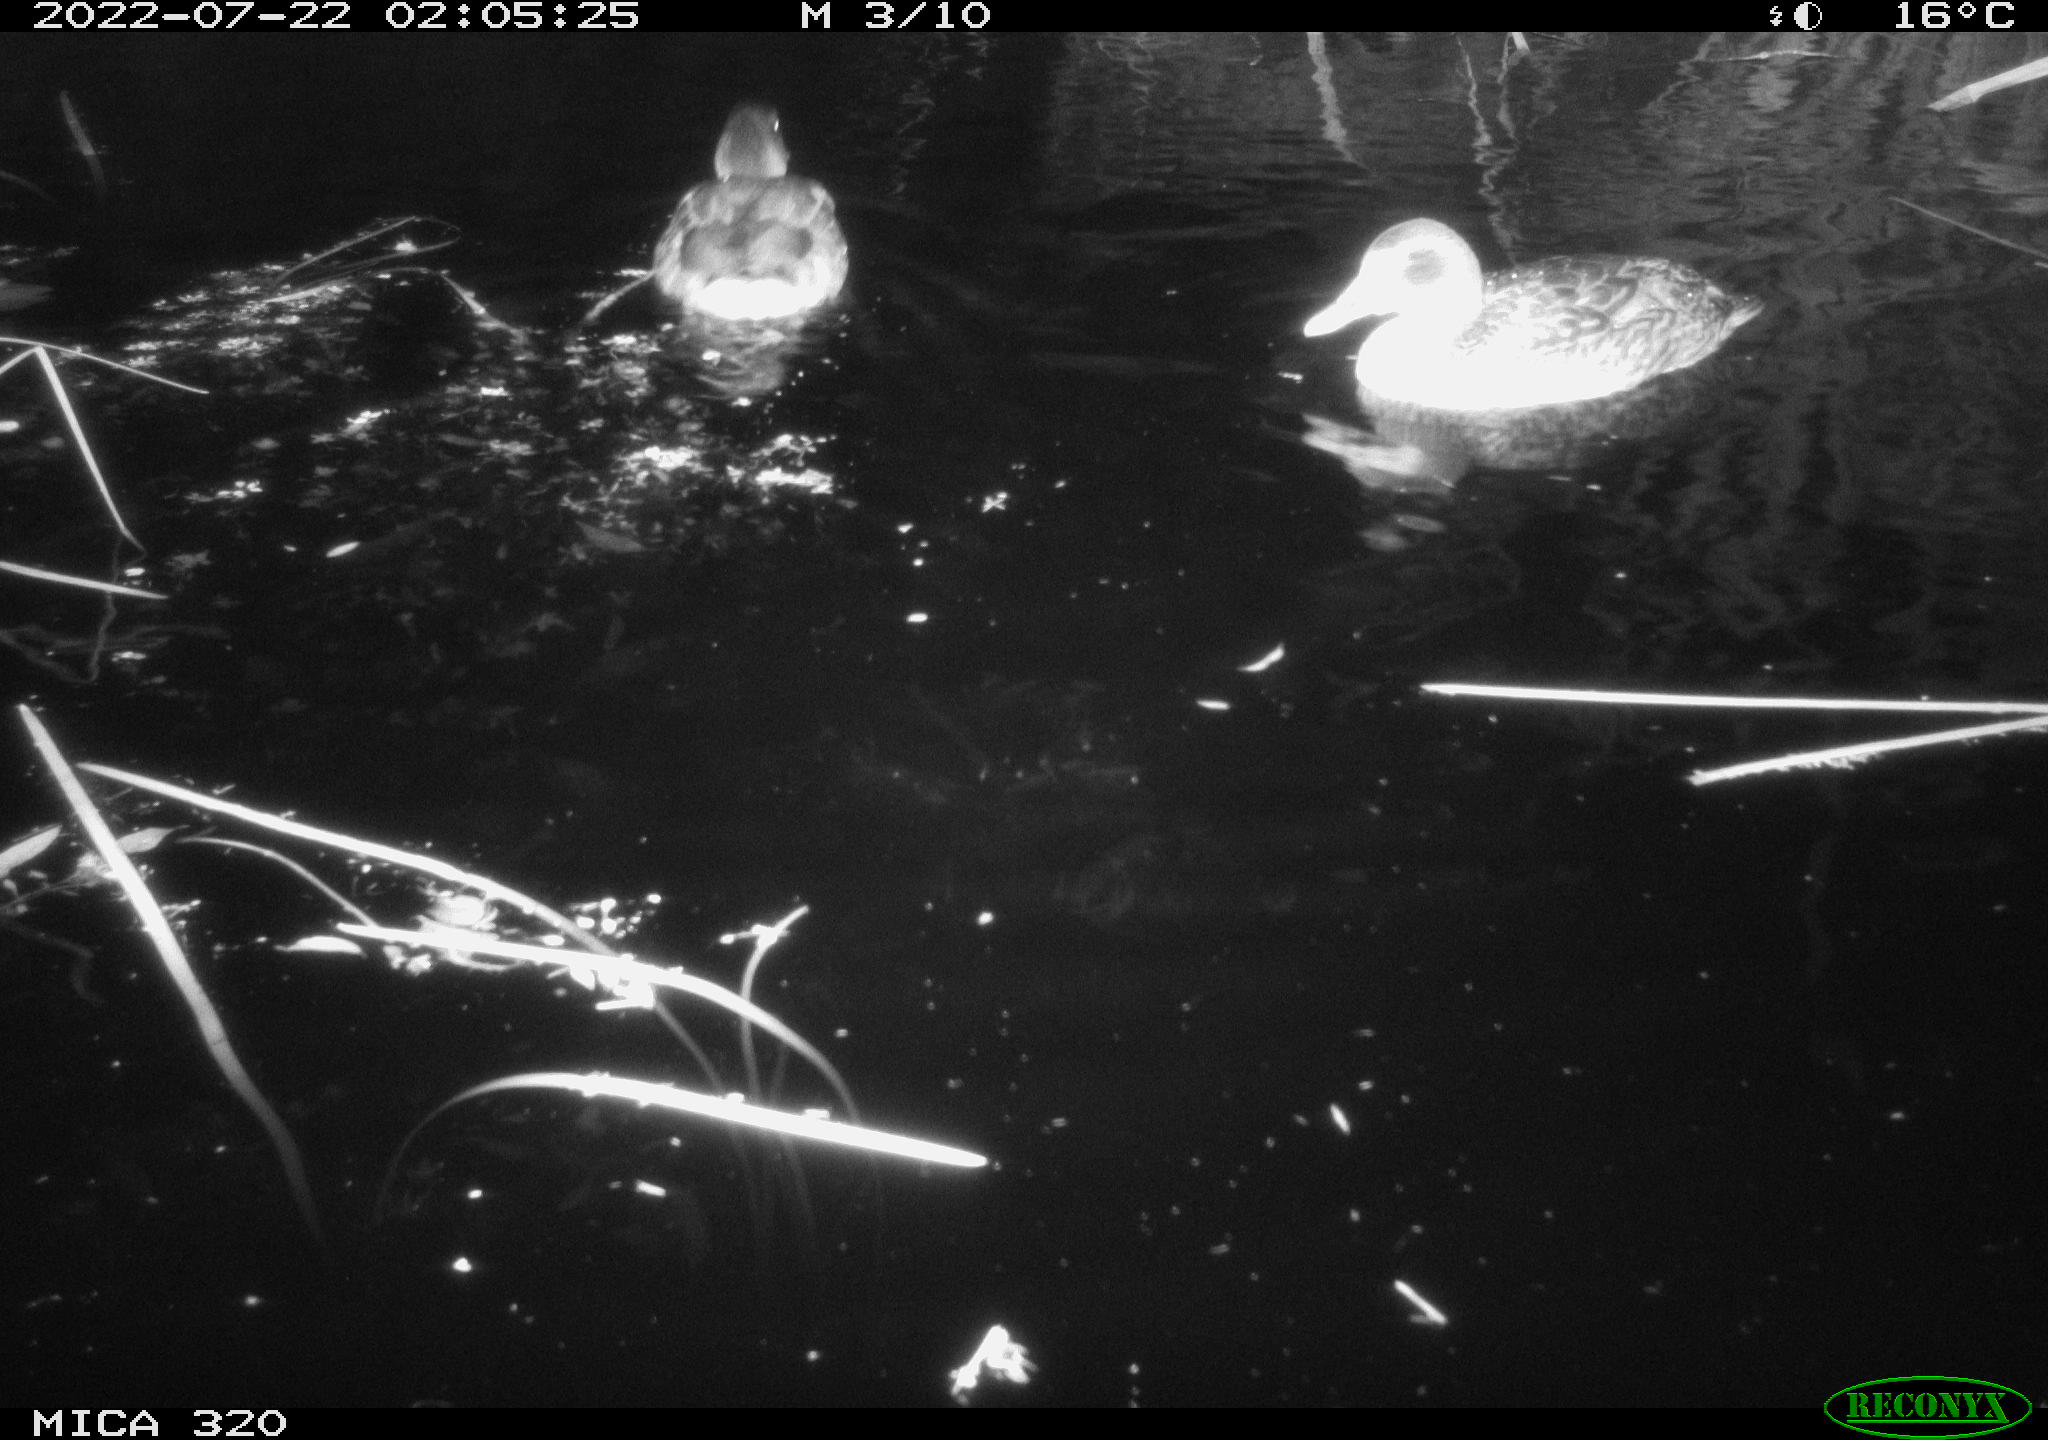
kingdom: Animalia
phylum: Chordata
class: Aves
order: Anseriformes
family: Anatidae
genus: Mareca
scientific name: Mareca strepera
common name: Gadwall
